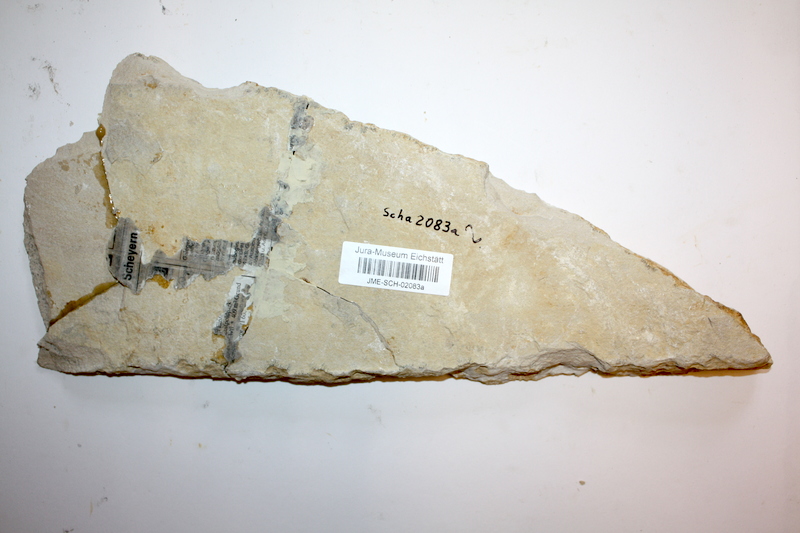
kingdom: Animalia
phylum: Chordata
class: Coelacanthi
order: Coelacanthiformes
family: Coelacanthidae
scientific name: Coelacanthidae
